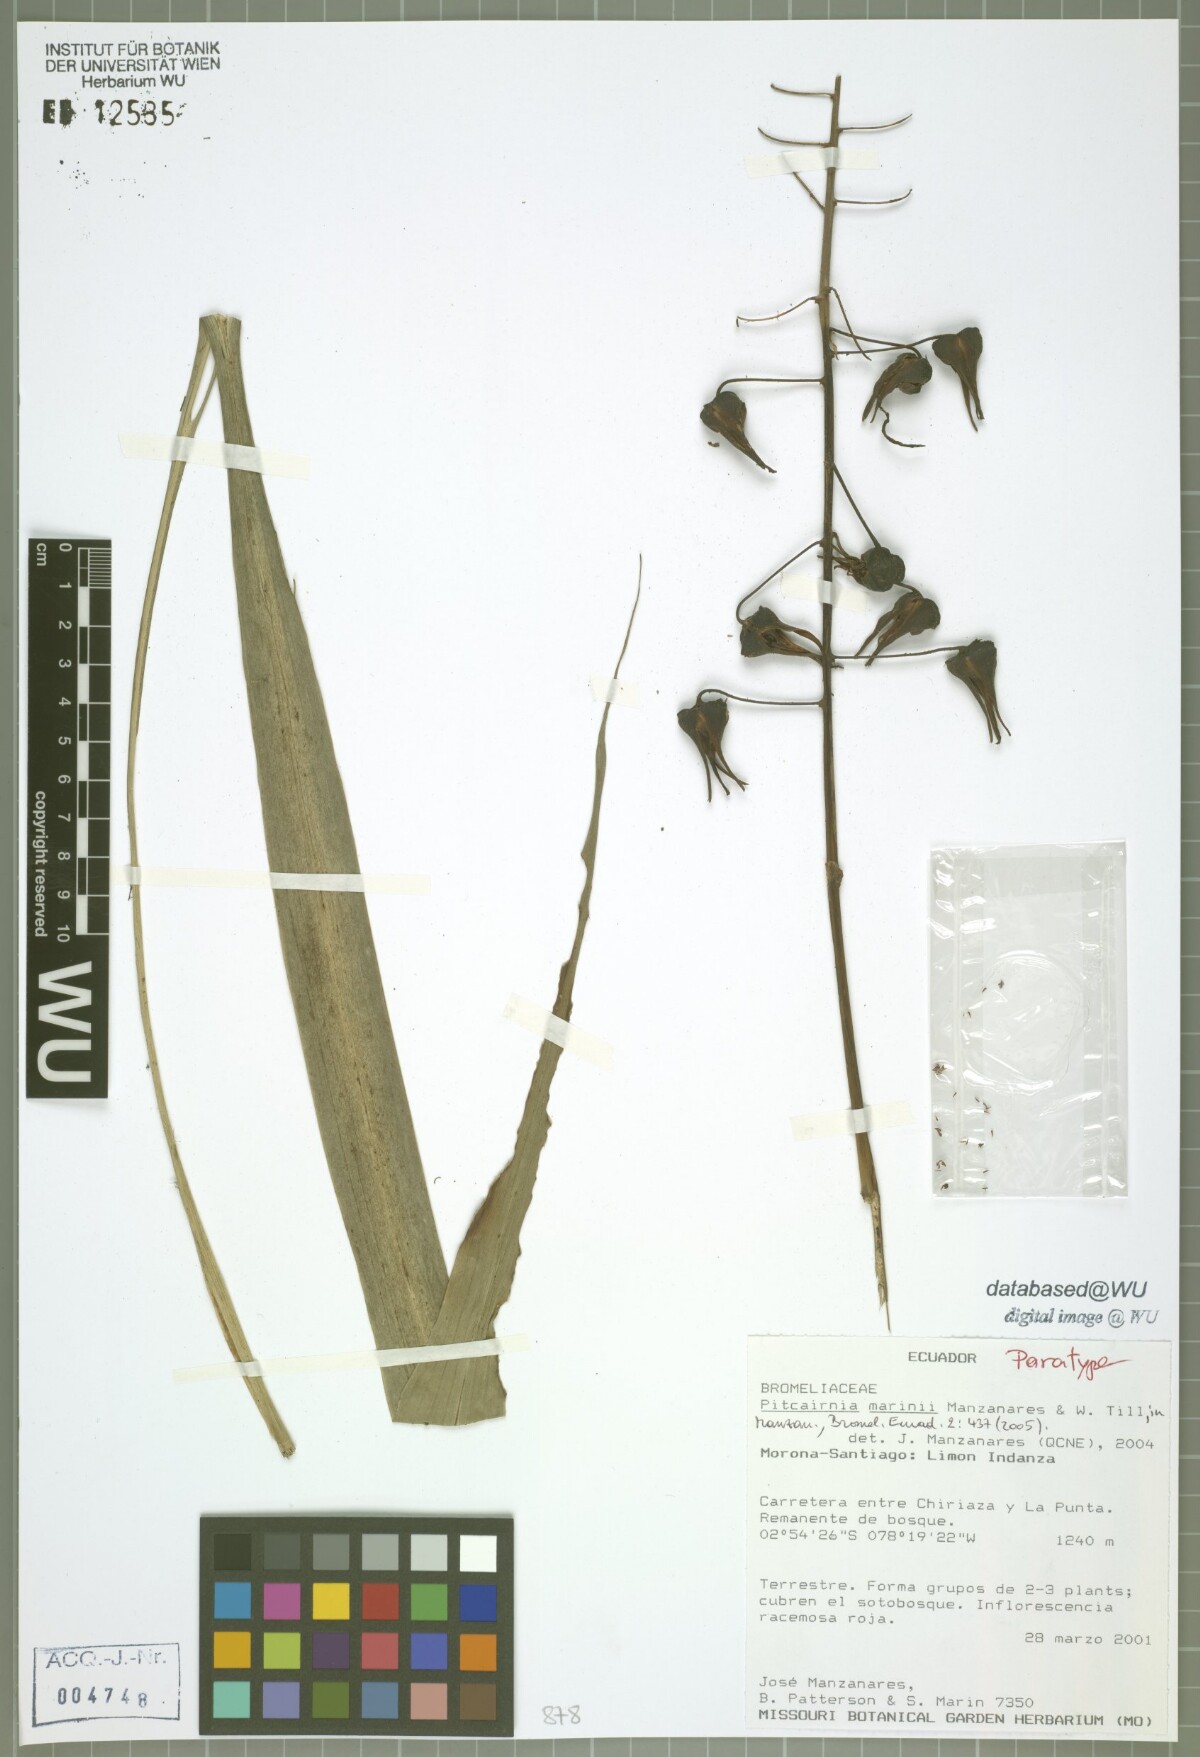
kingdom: Plantae
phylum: Tracheophyta
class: Liliopsida
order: Poales
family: Bromeliaceae
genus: Pitcairnia
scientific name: Pitcairnia marinii
